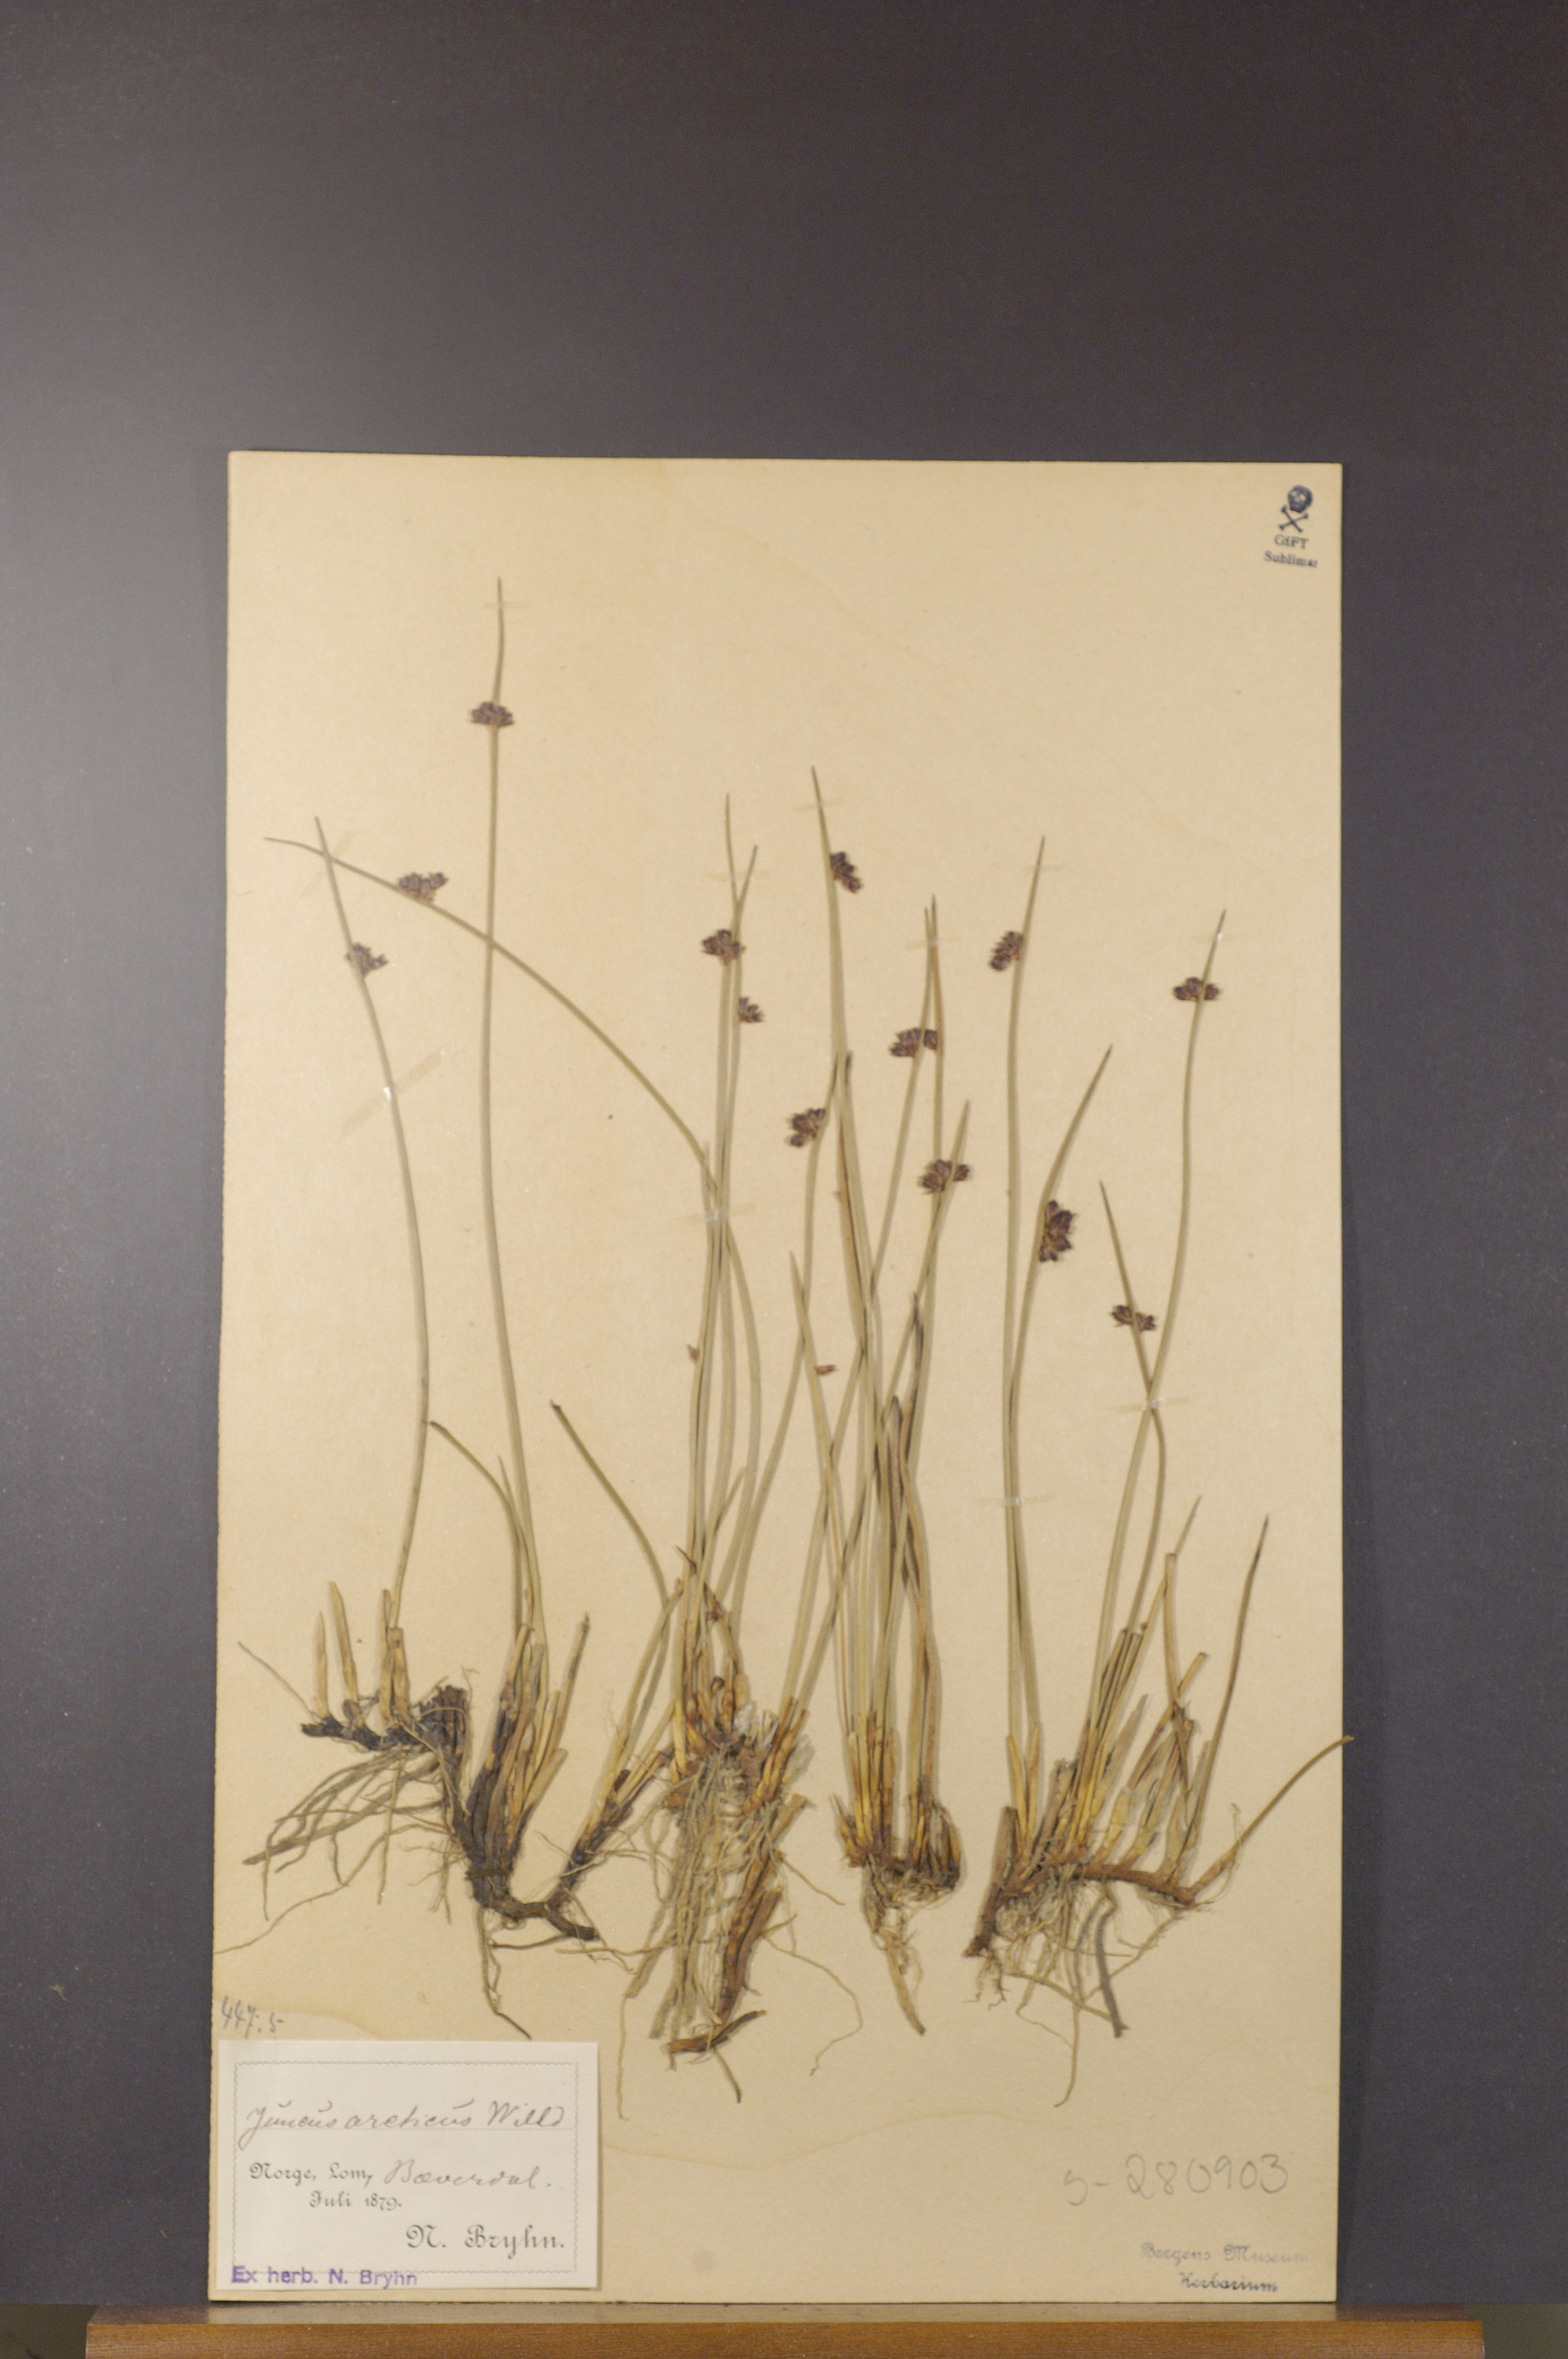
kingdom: Plantae
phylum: Tracheophyta
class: Liliopsida
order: Poales
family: Juncaceae
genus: Juncus
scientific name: Juncus arcticus
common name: Arctic rush
